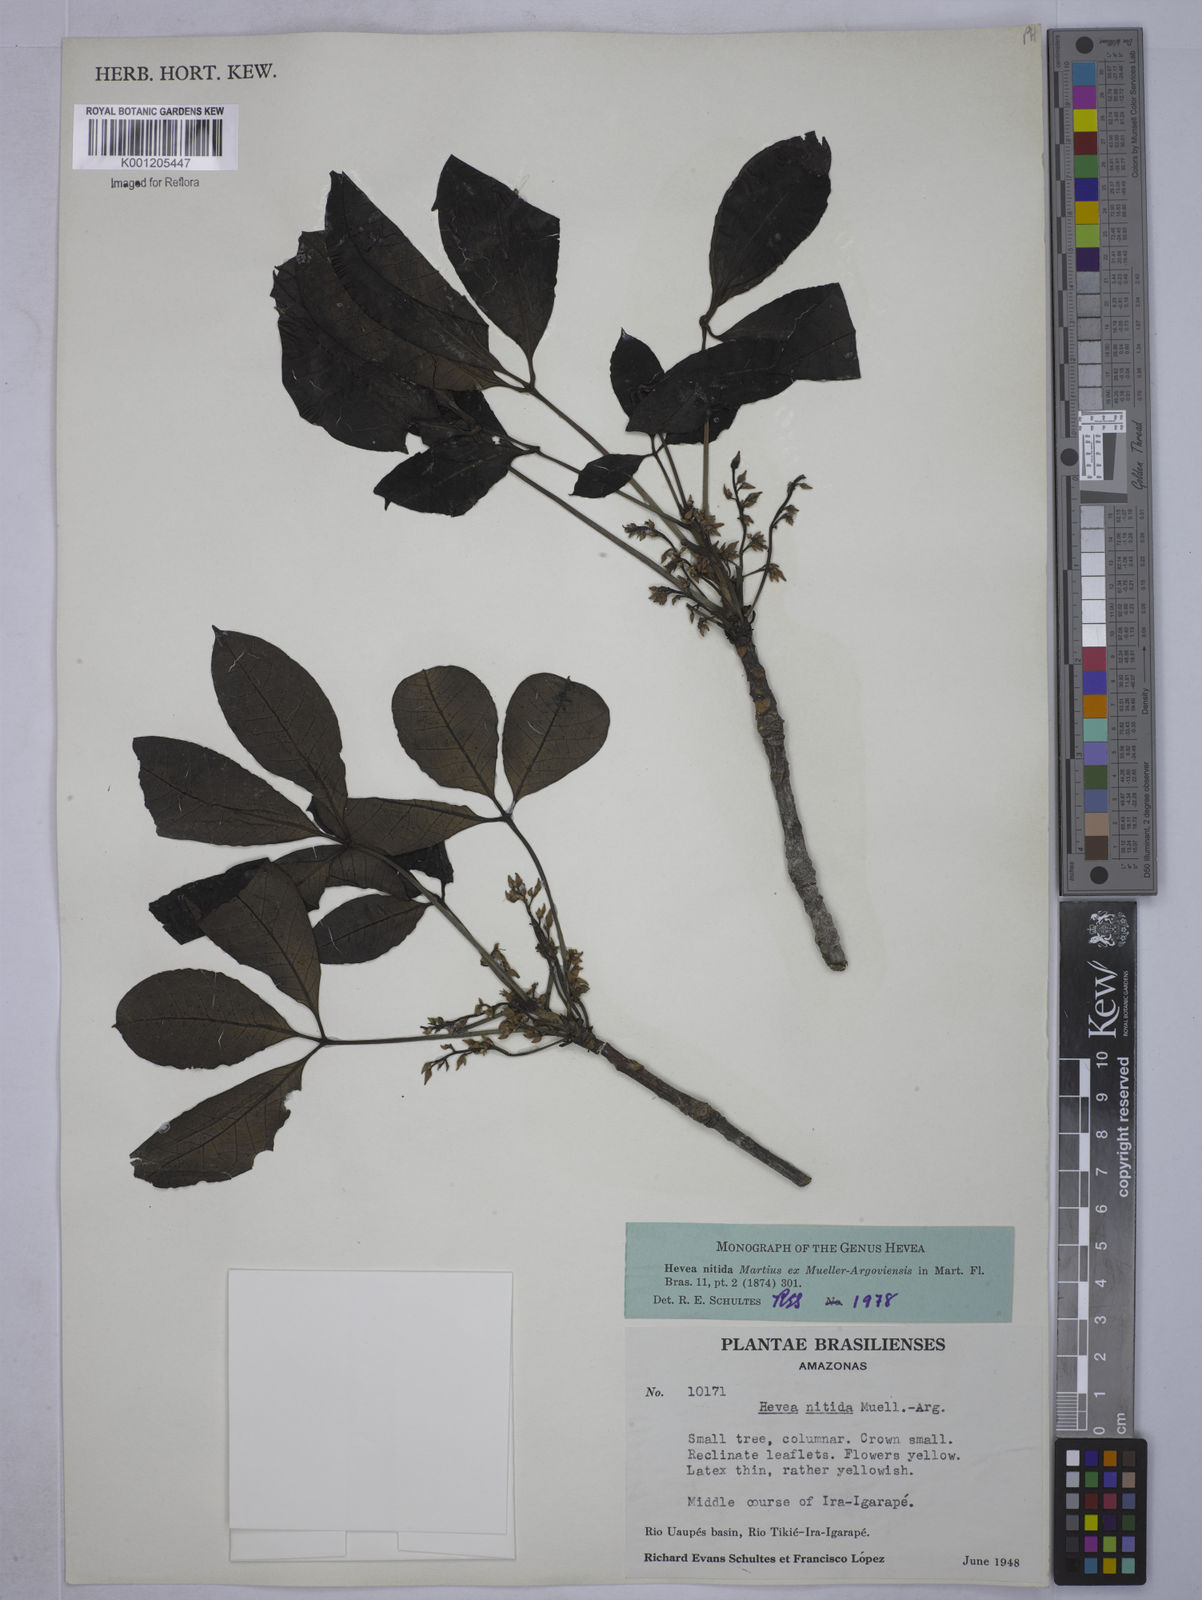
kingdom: Plantae
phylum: Tracheophyta
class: Magnoliopsida
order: Malpighiales
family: Euphorbiaceae
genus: Hevea
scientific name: Hevea
